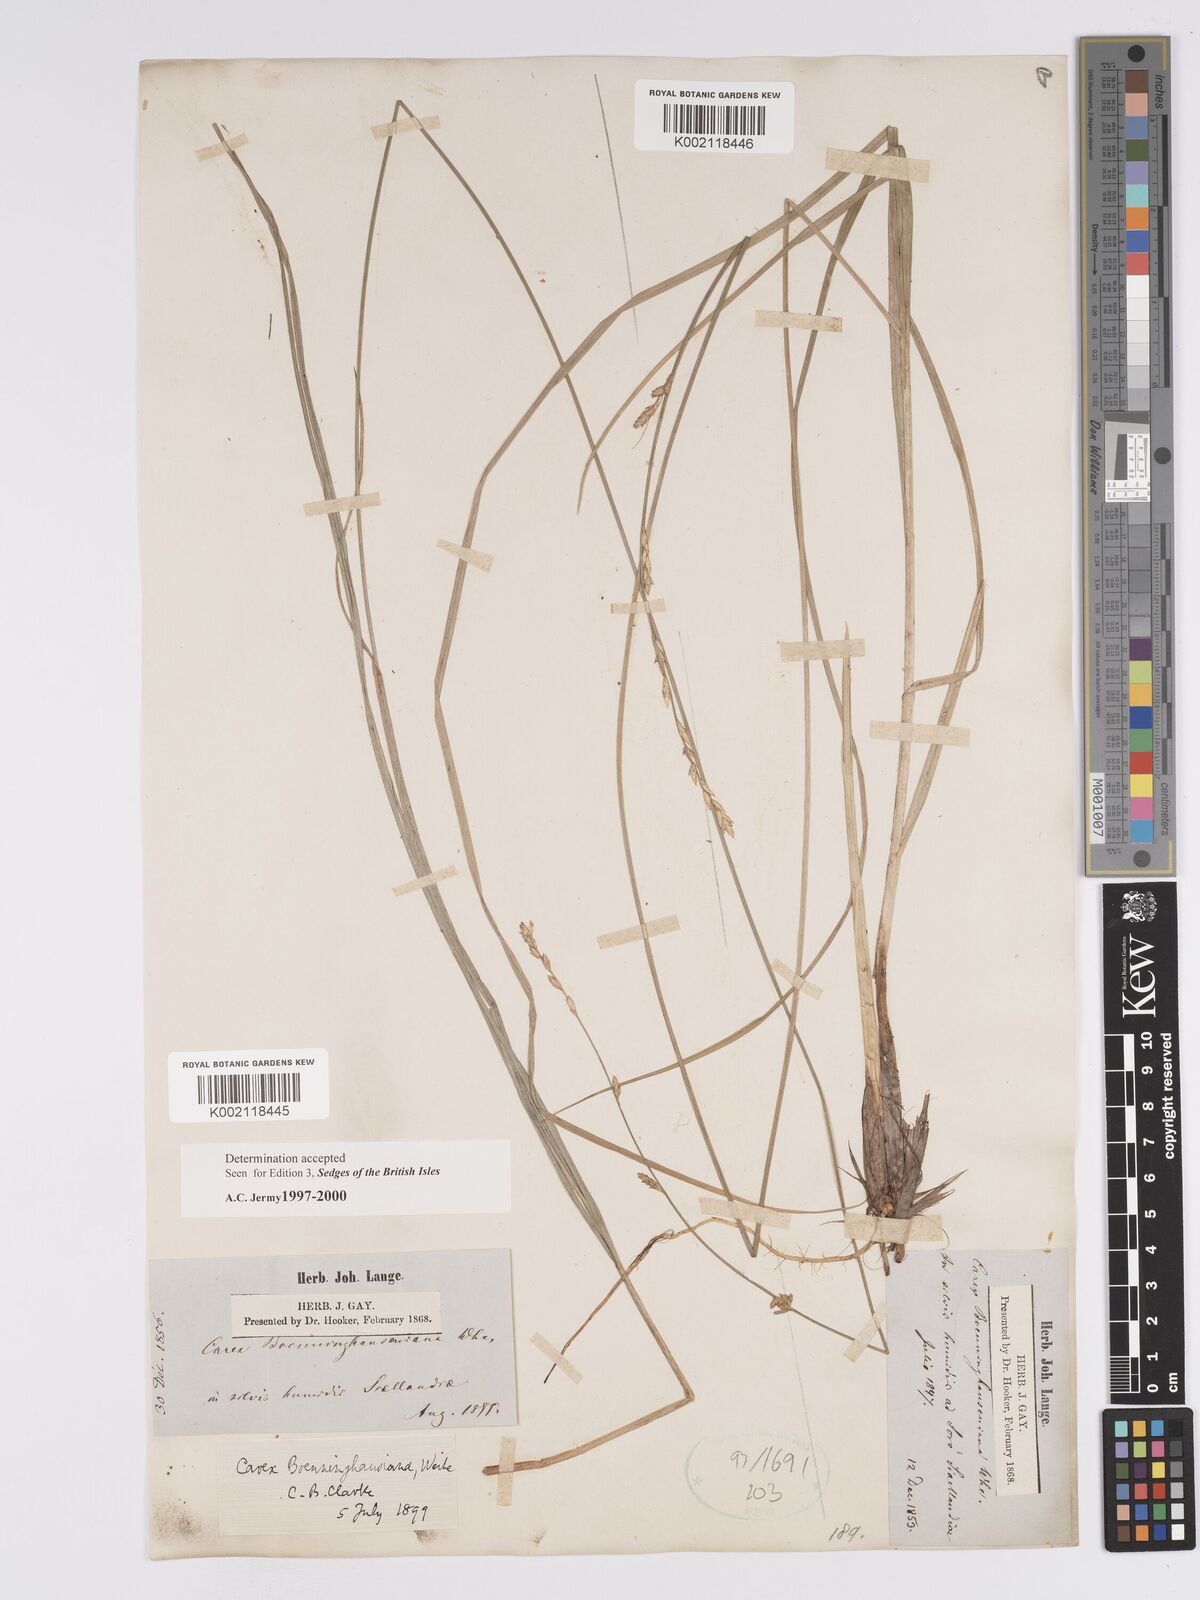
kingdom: Plantae
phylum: Tracheophyta
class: Liliopsida
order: Poales
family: Cyperaceae
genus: Carex
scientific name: Carex boenninghausiana
